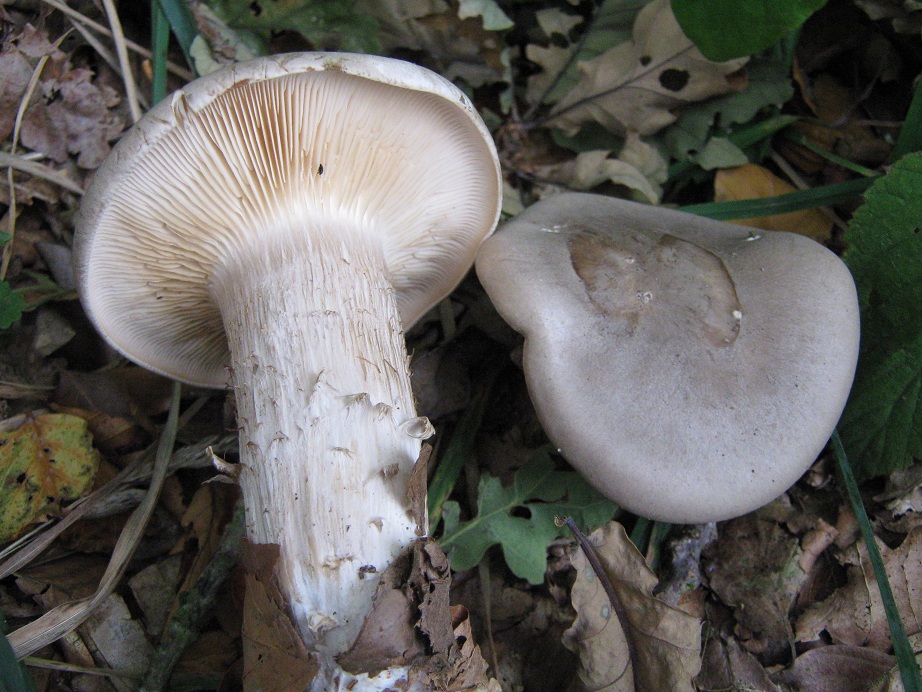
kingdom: Fungi
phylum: Basidiomycota
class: Agaricomycetes
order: Agaricales
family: Tricholomataceae
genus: Clitocybe
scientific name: Clitocybe nebularis
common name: tåge-tragthat
